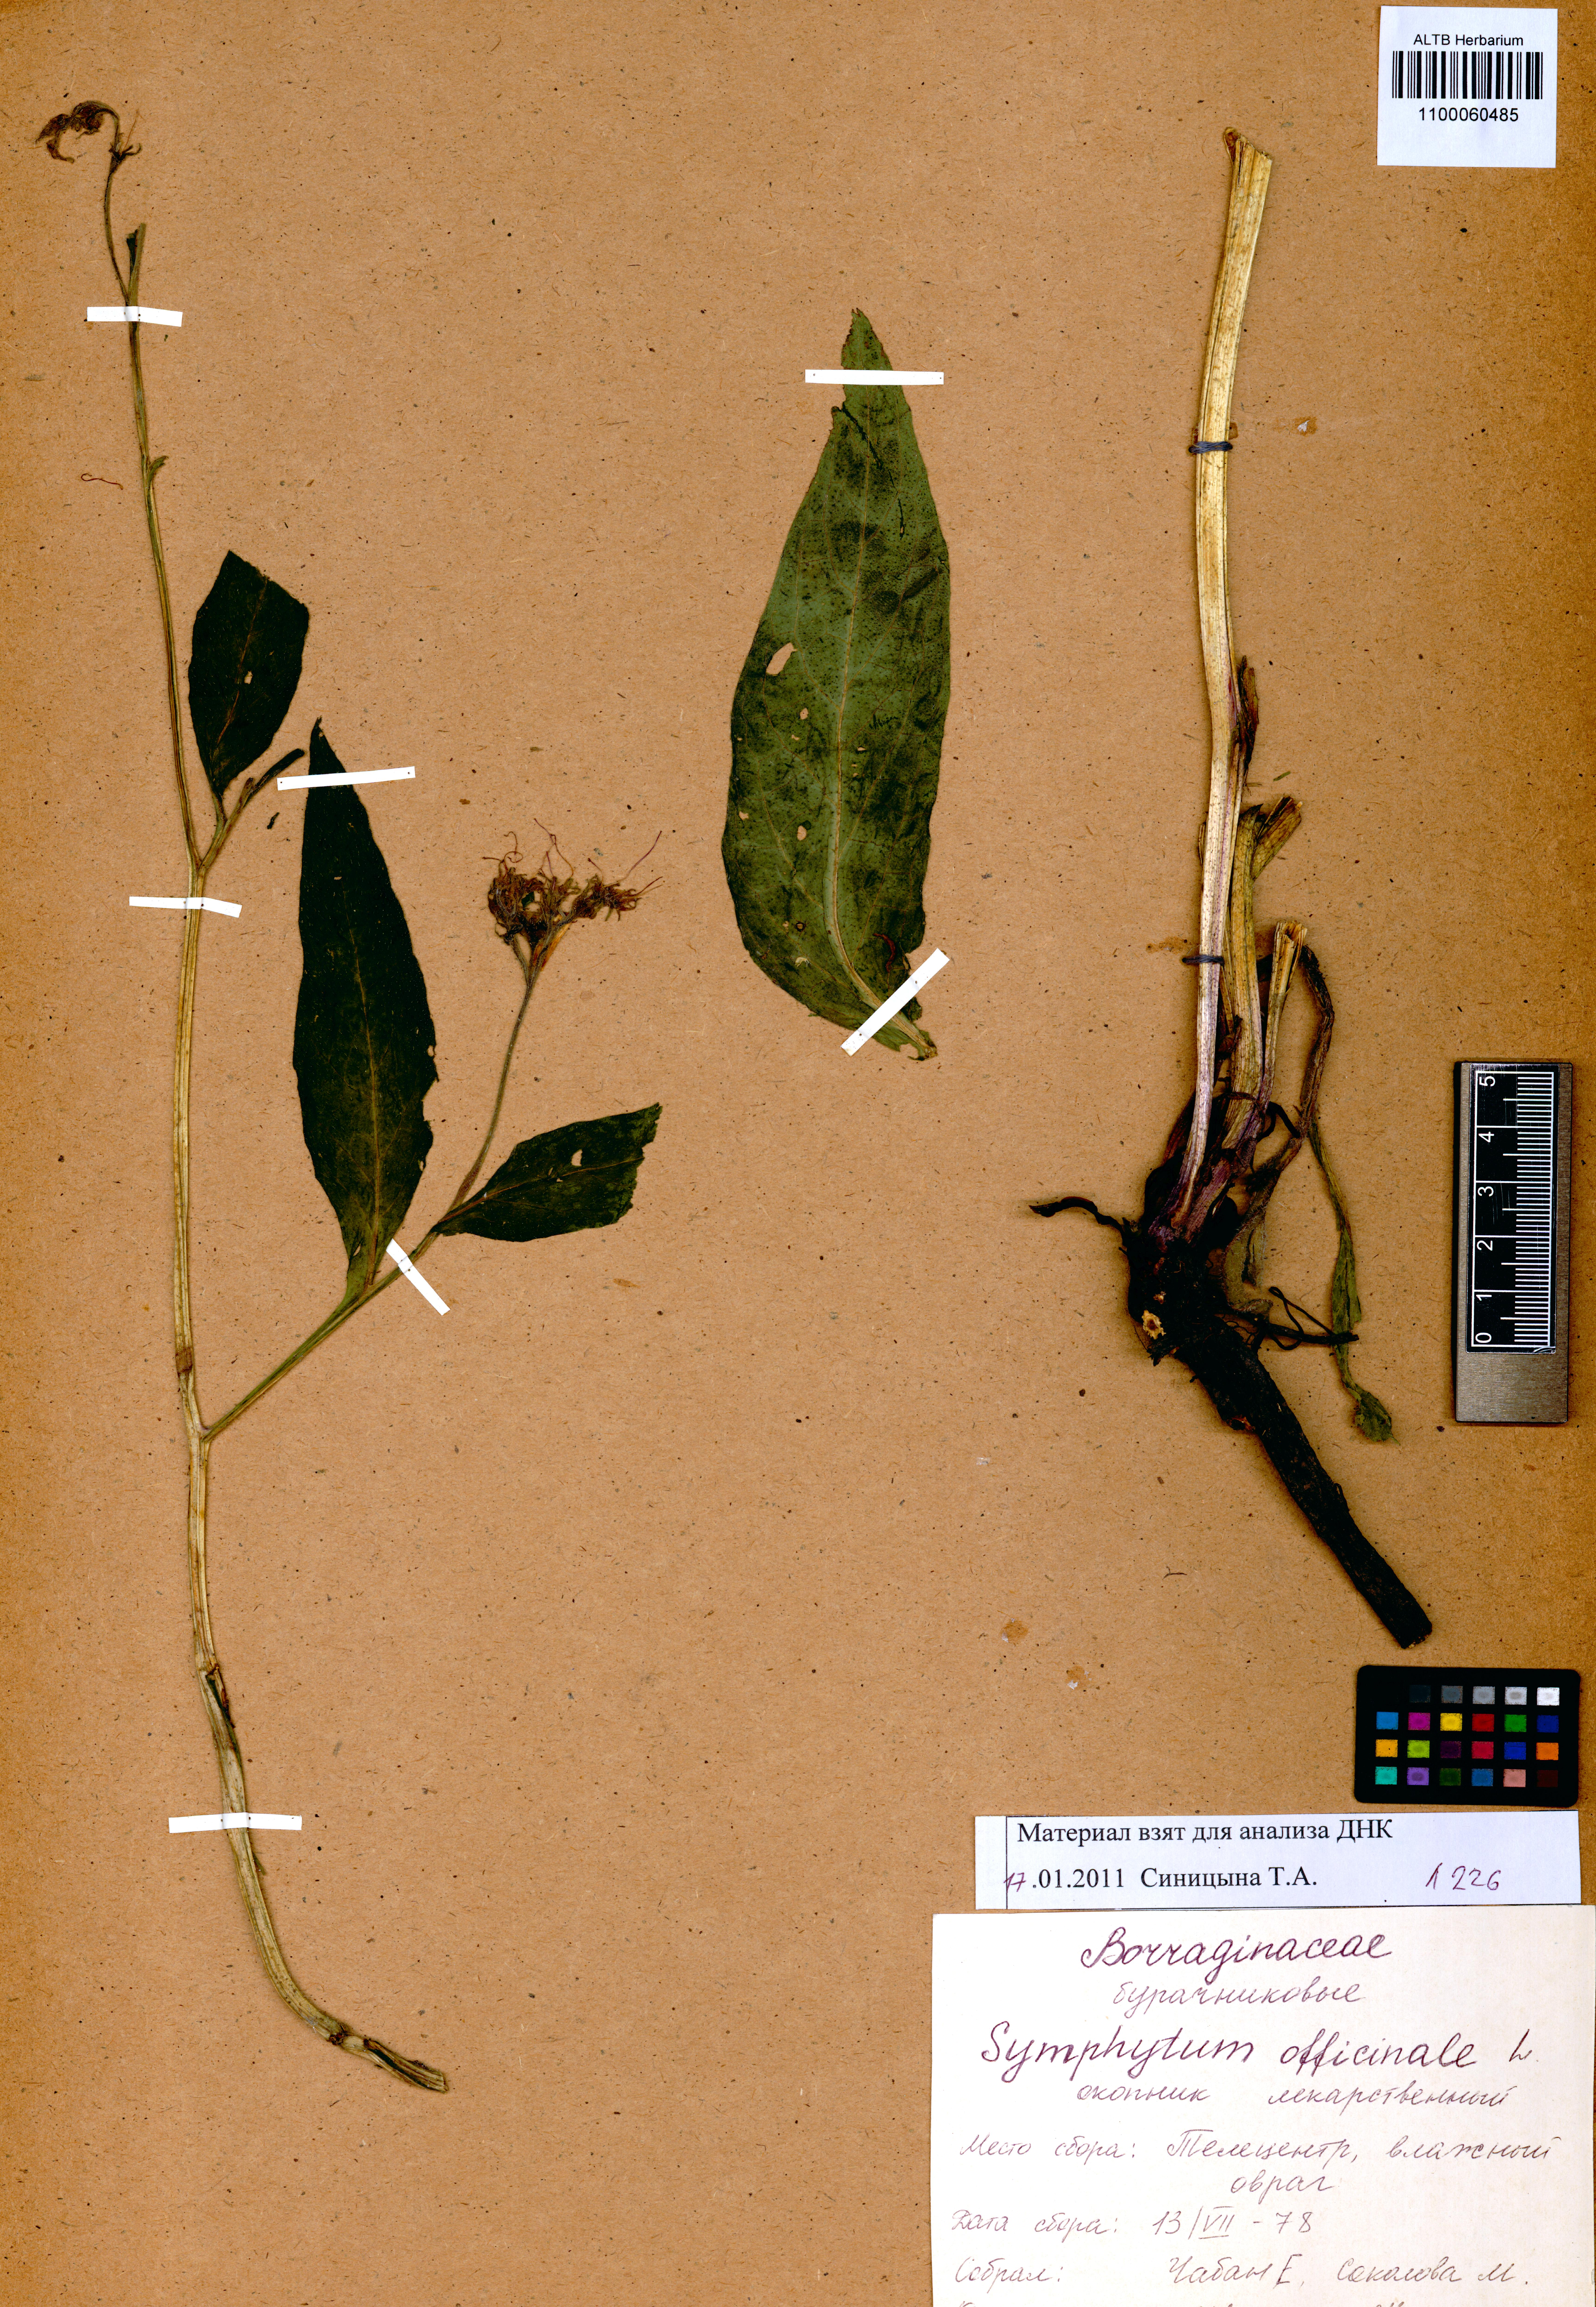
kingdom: Plantae
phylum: Tracheophyta
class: Magnoliopsida
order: Boraginales
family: Boraginaceae
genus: Symphytum
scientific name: Symphytum officinale
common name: Common comfrey
